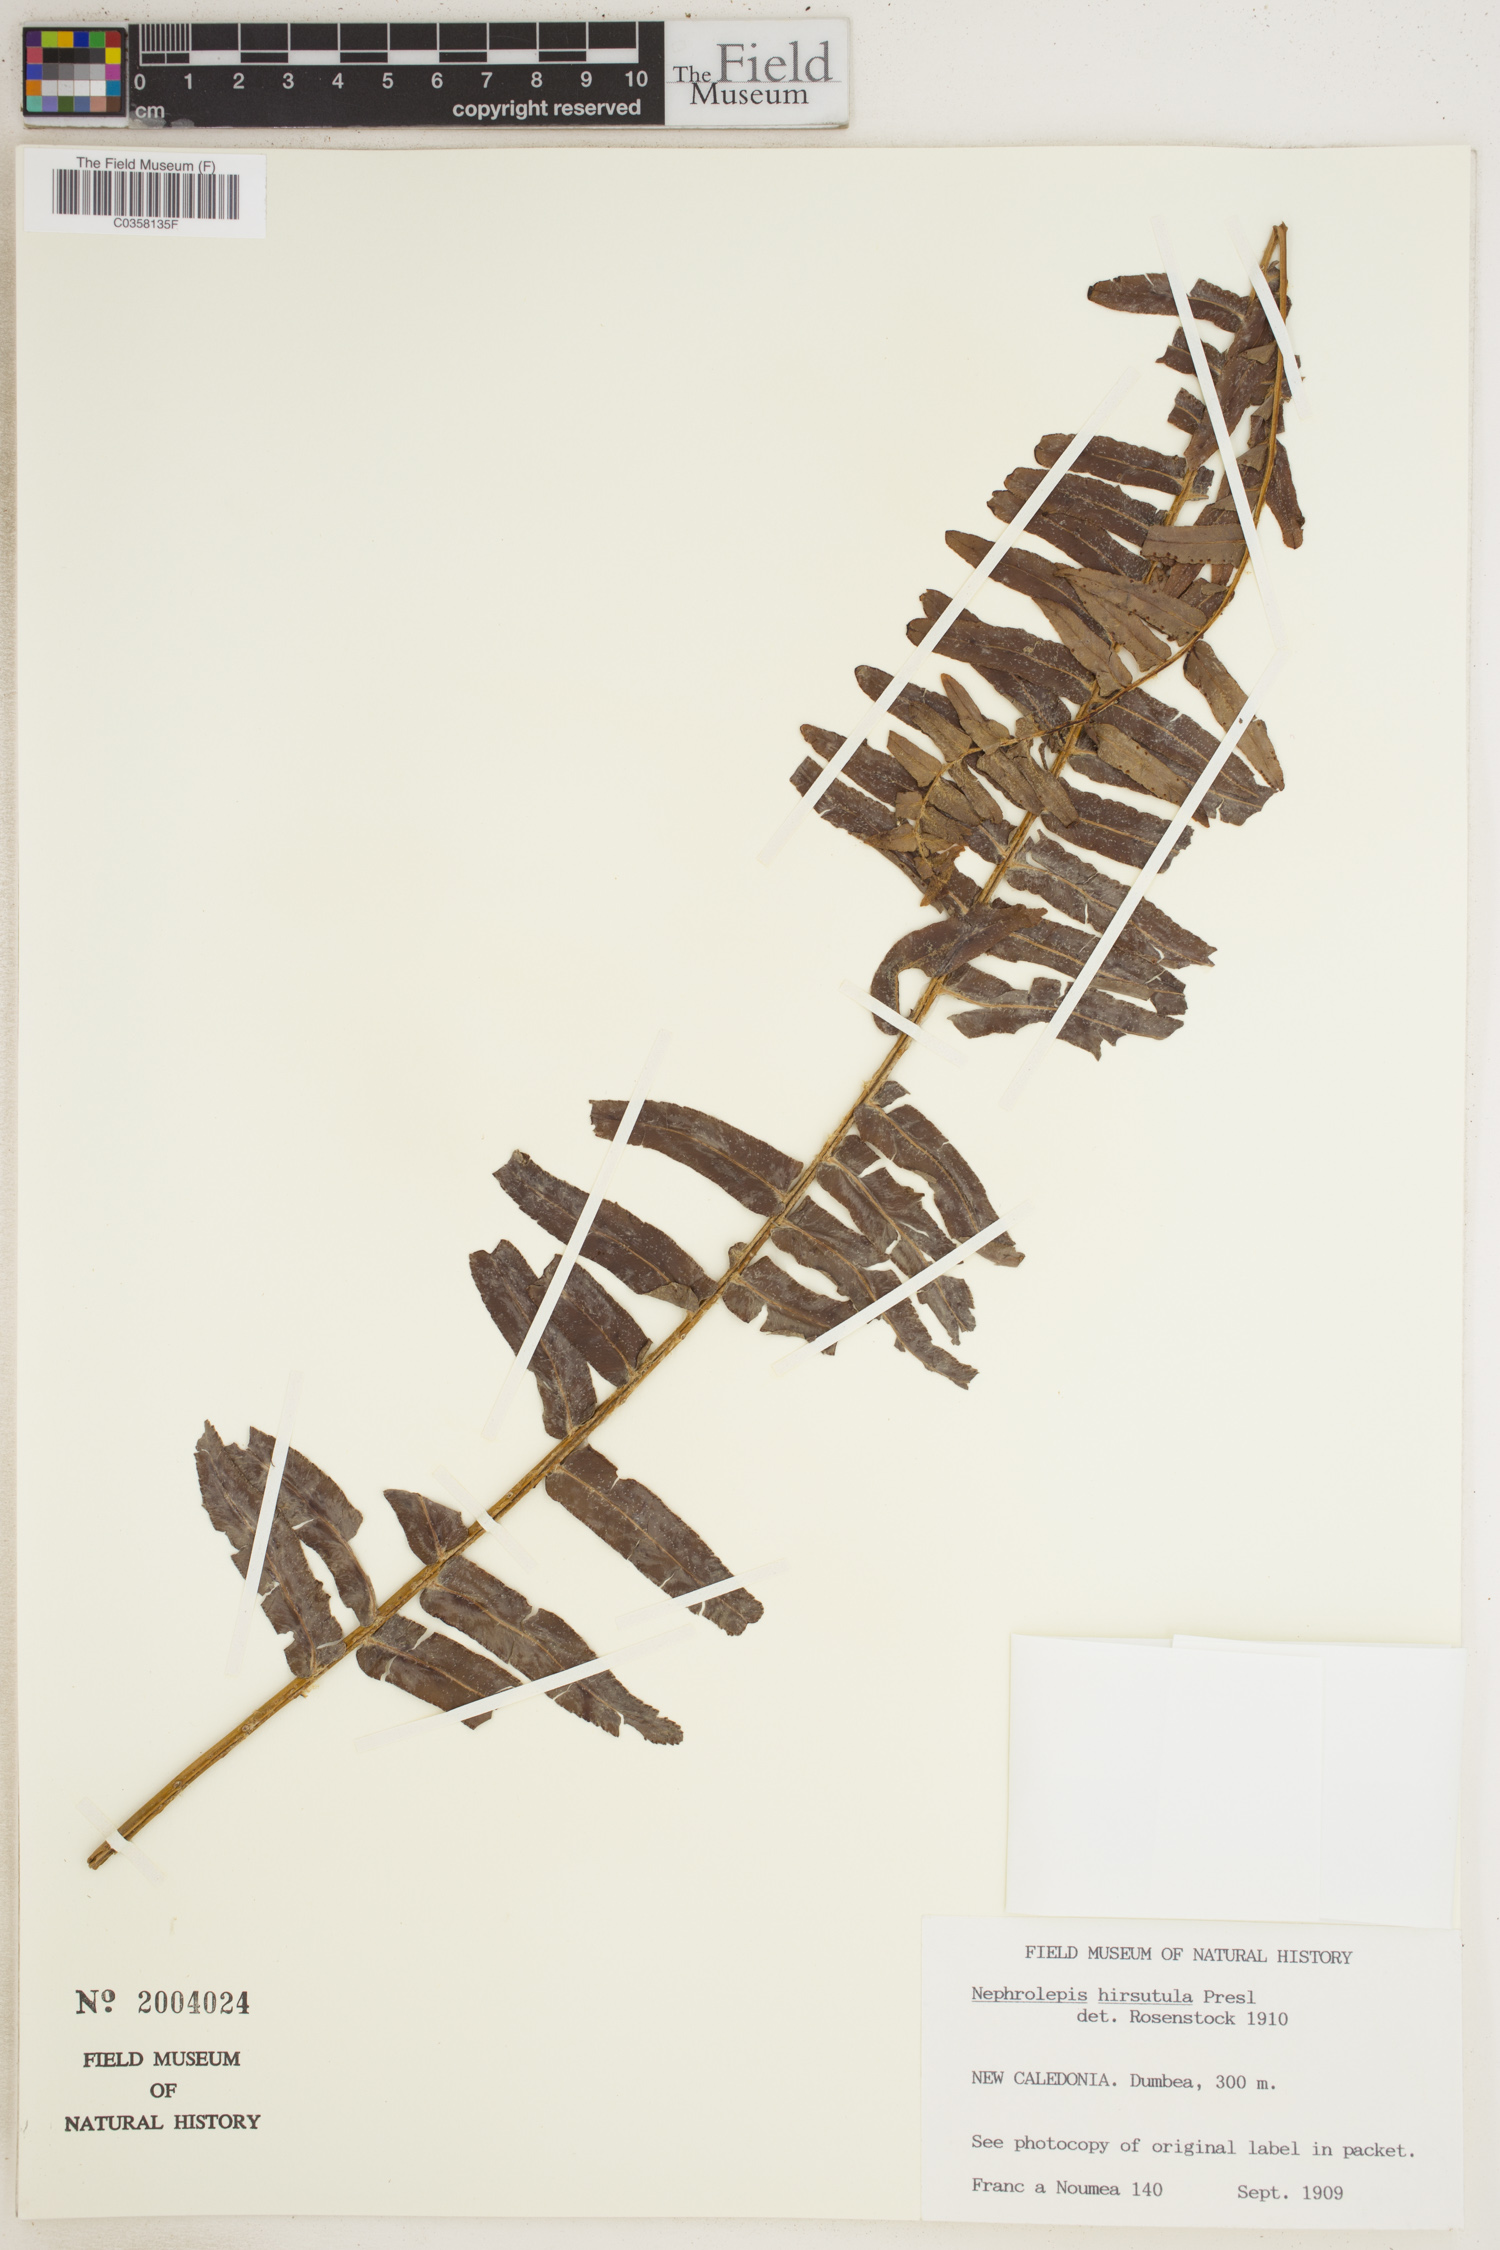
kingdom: Plantae
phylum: Tracheophyta
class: Polypodiopsida
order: Polypodiales
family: Nephrolepidaceae
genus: Nephrolepis
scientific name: Nephrolepis hirsutula
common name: Asian sword fern
